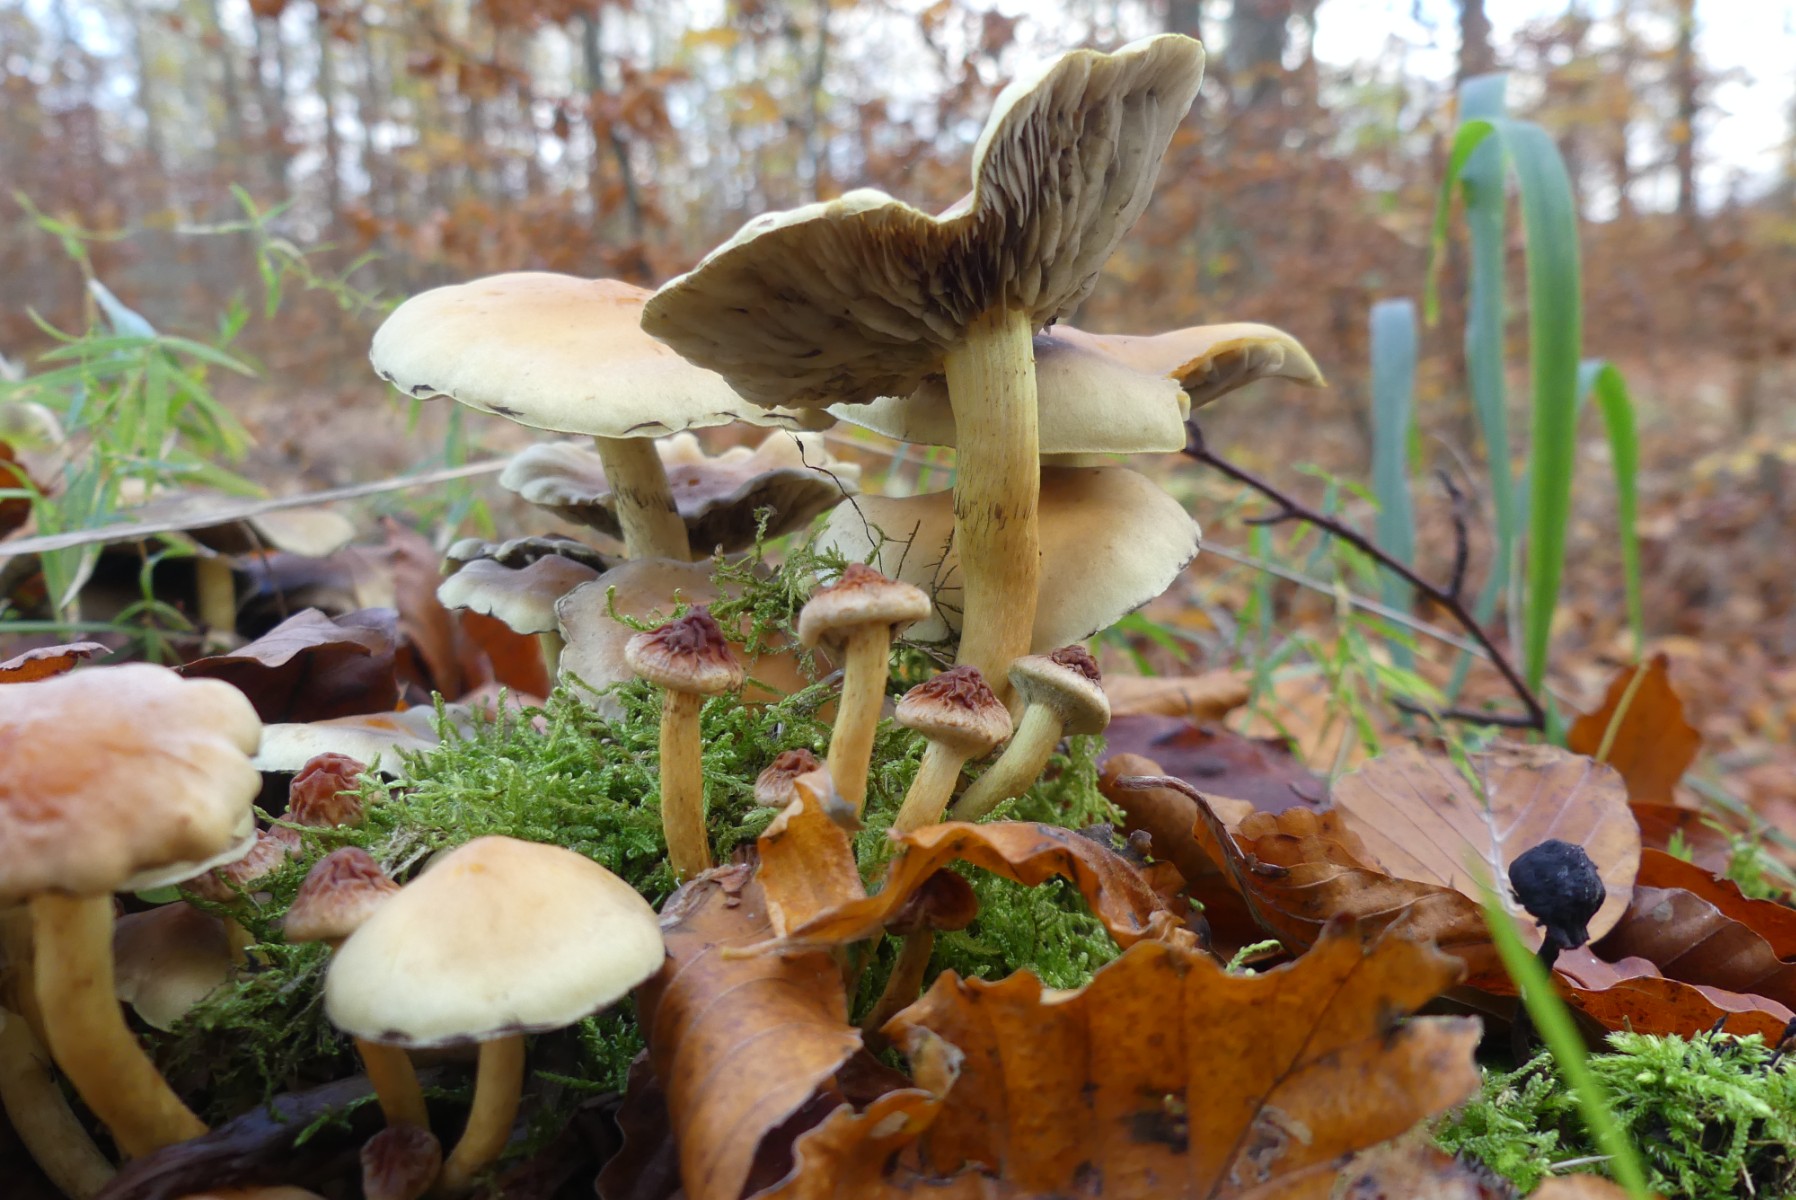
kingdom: Fungi
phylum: Basidiomycota
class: Agaricomycetes
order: Agaricales
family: Strophariaceae
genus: Hypholoma
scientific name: Hypholoma fasciculare
